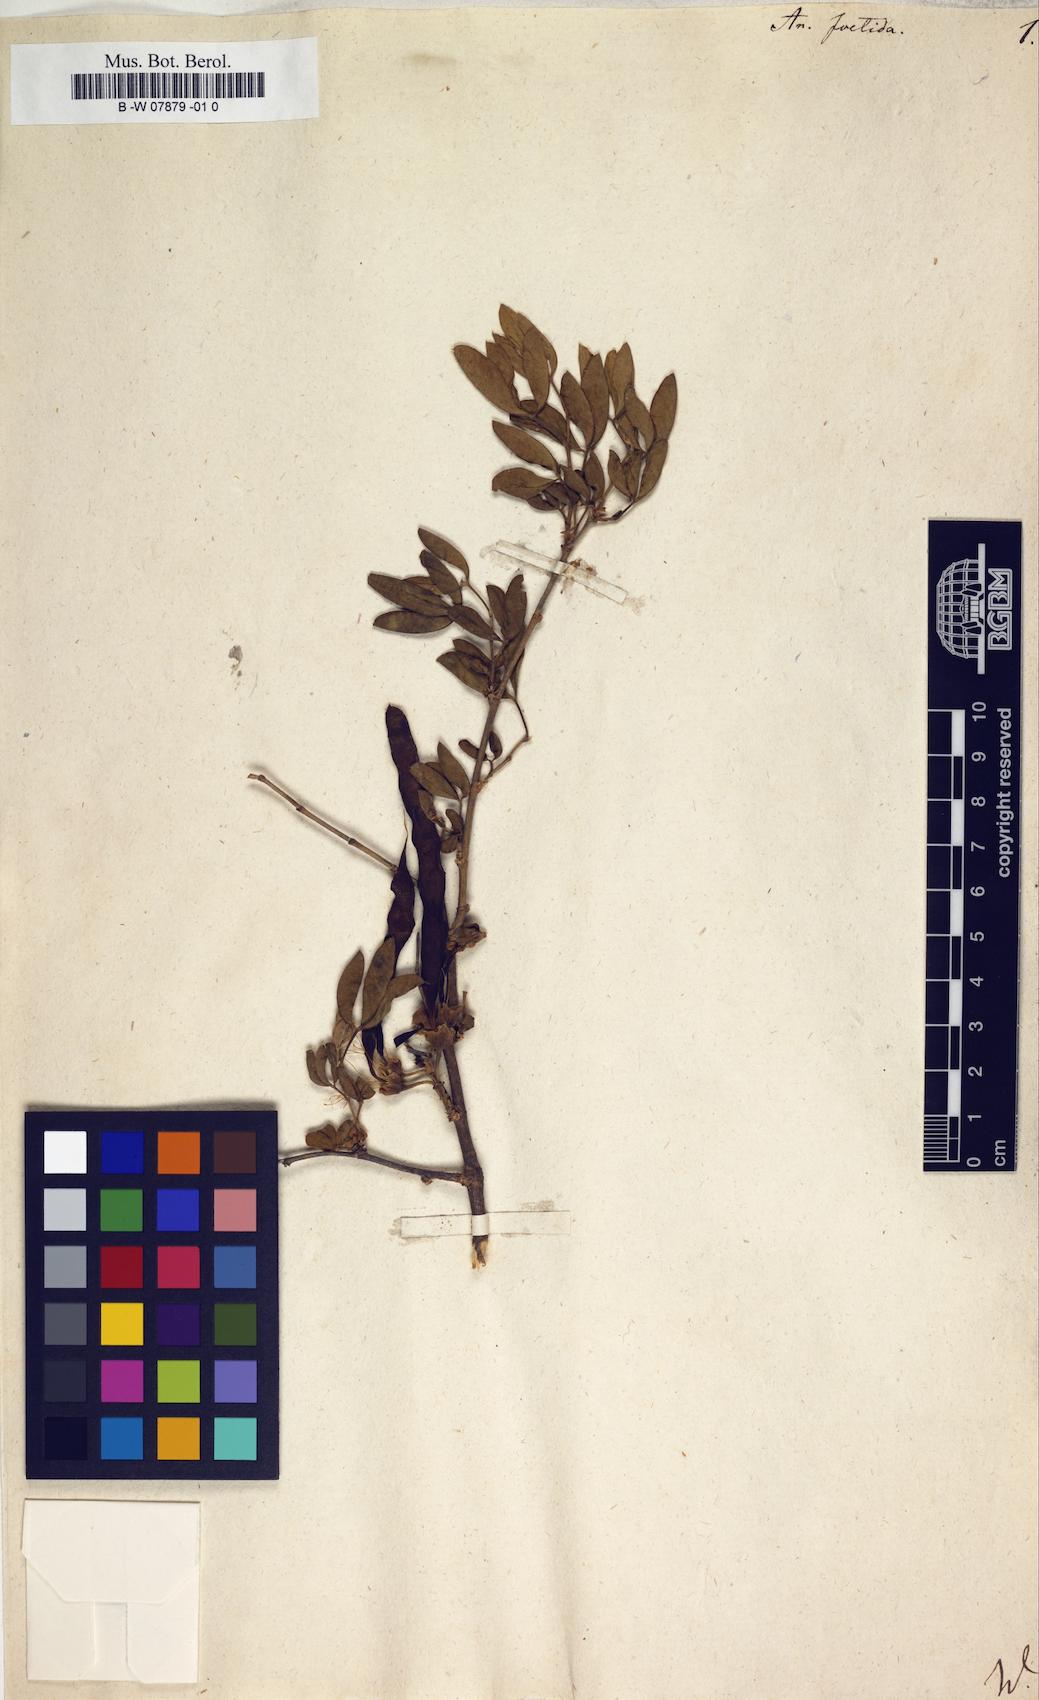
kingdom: Plantae
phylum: Tracheophyta
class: Magnoliopsida
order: Fabales
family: Fabaceae
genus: Anagyris
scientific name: Anagyris foetida
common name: Stinking bean trefoil
